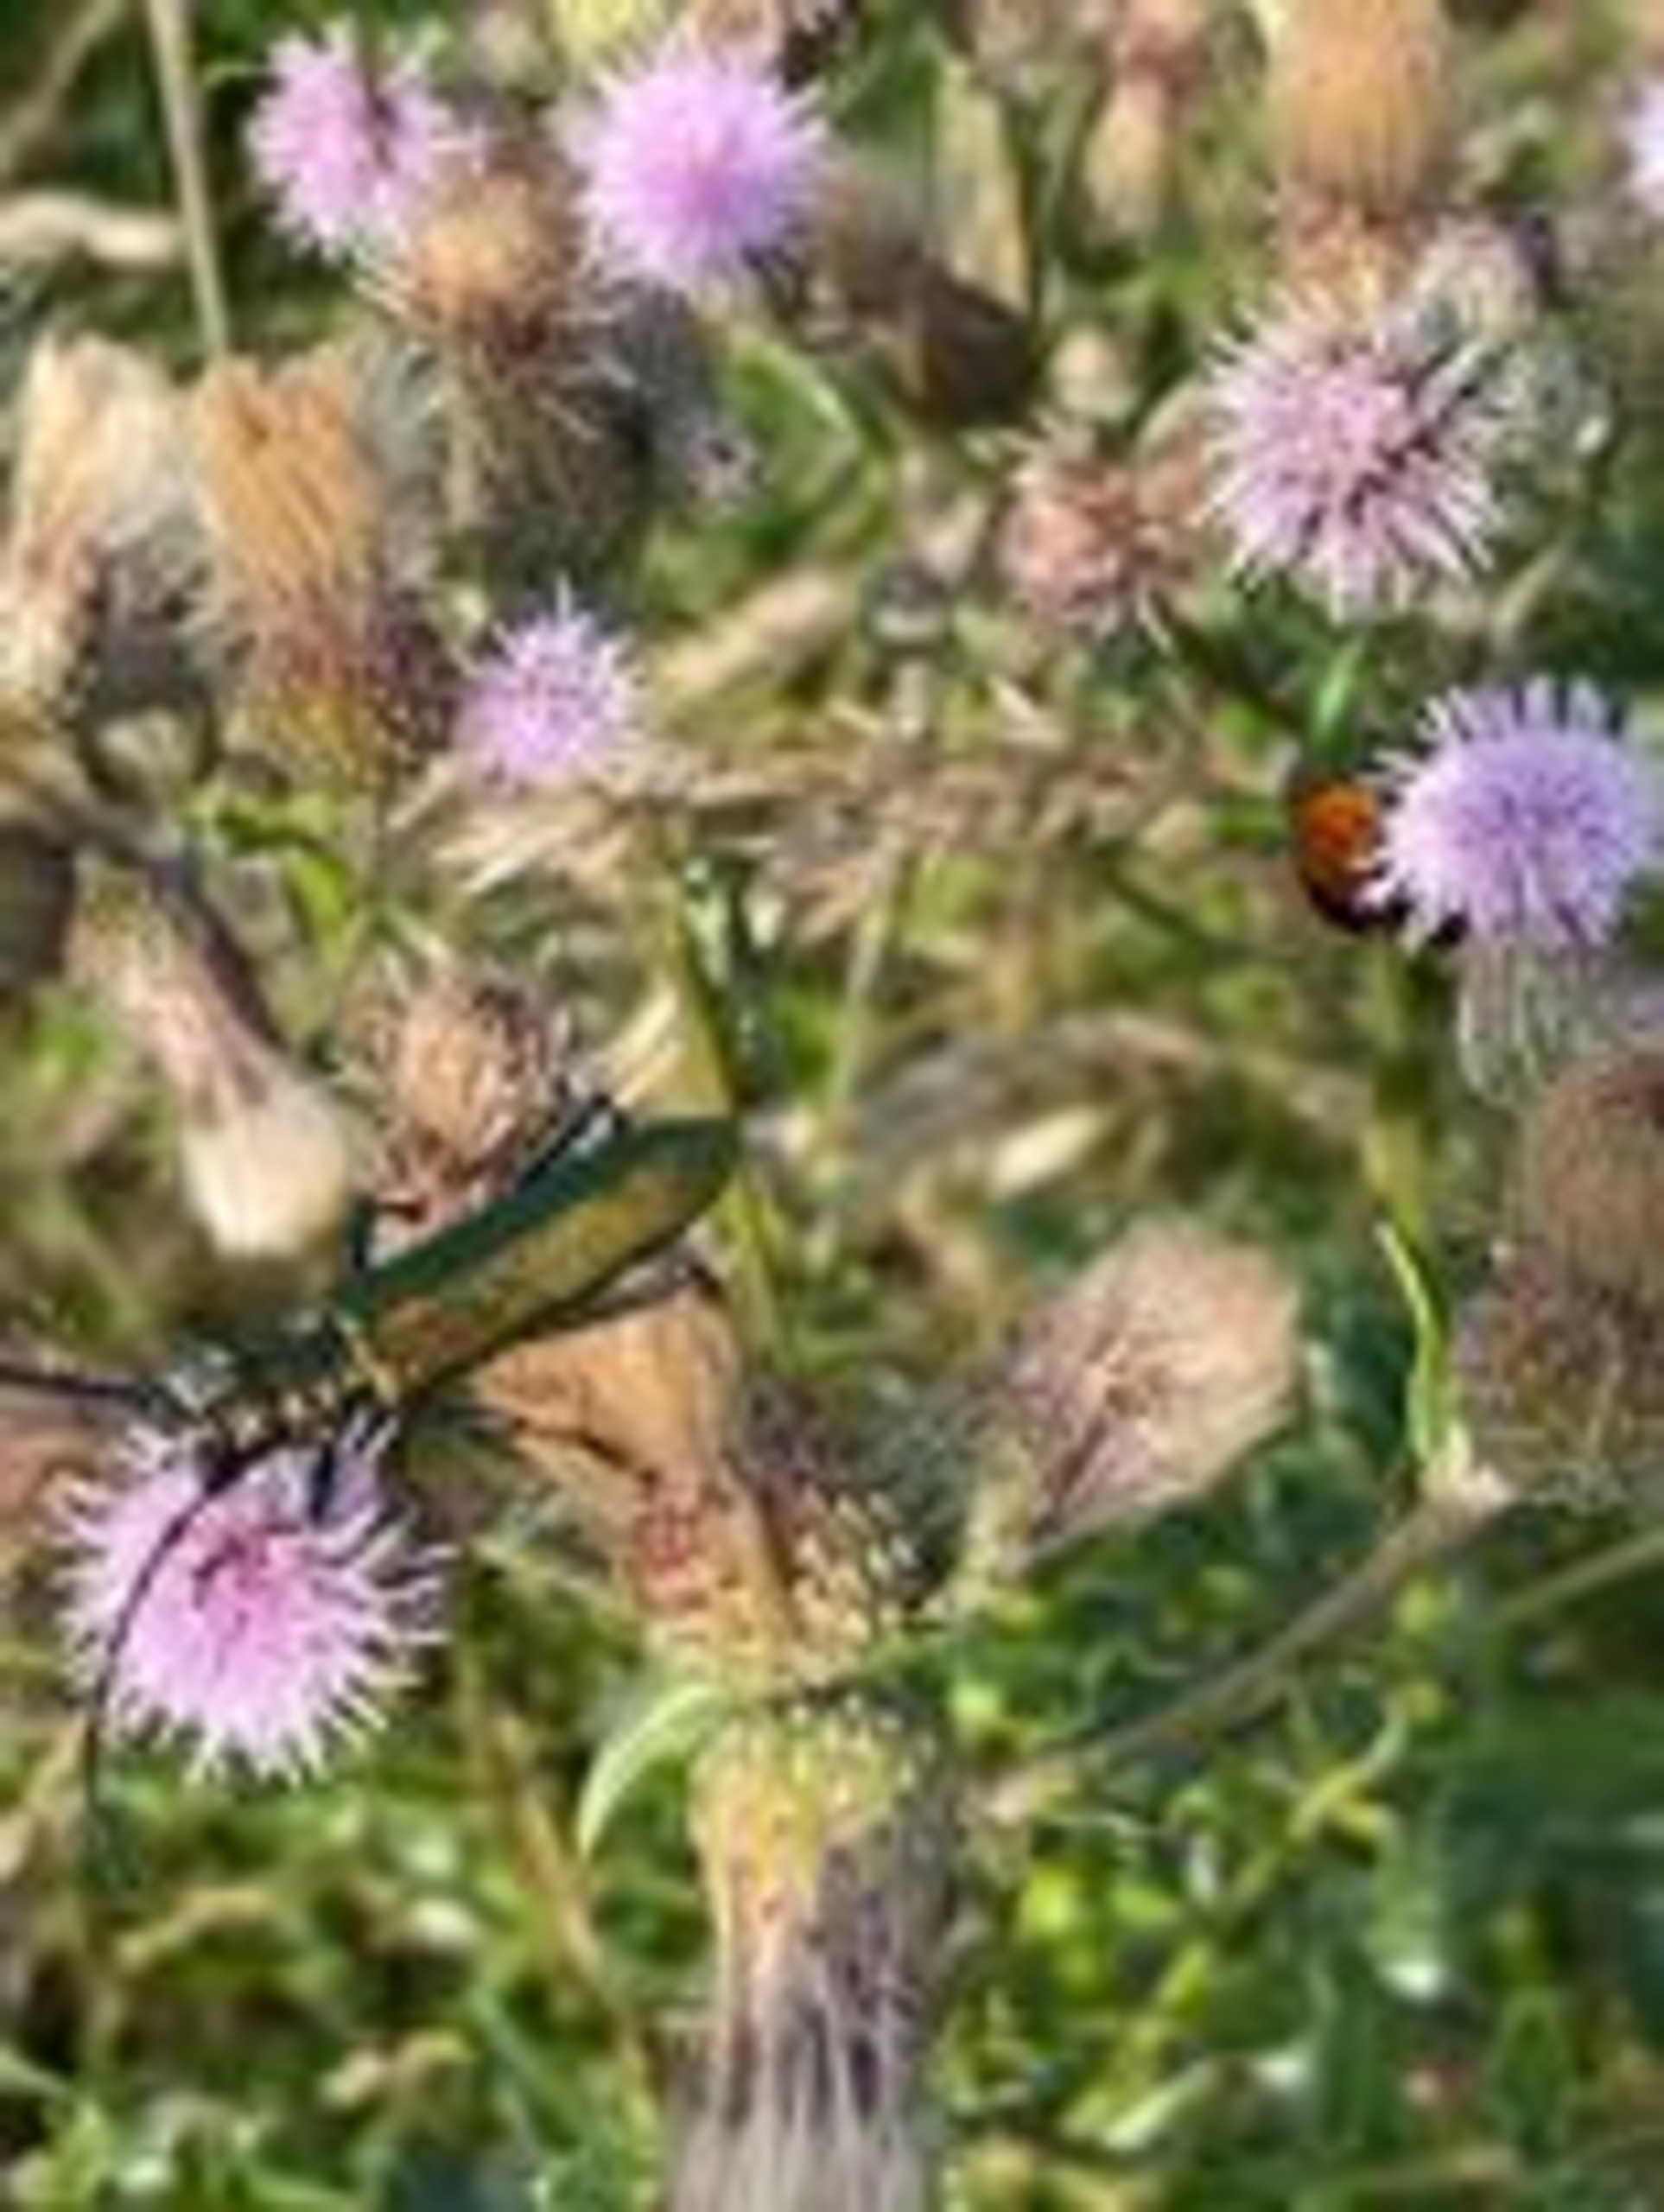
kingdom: Animalia
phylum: Arthropoda
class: Insecta
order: Coleoptera
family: Cerambycidae
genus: Aromia
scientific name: Aromia moschata
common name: Moskusbuk
